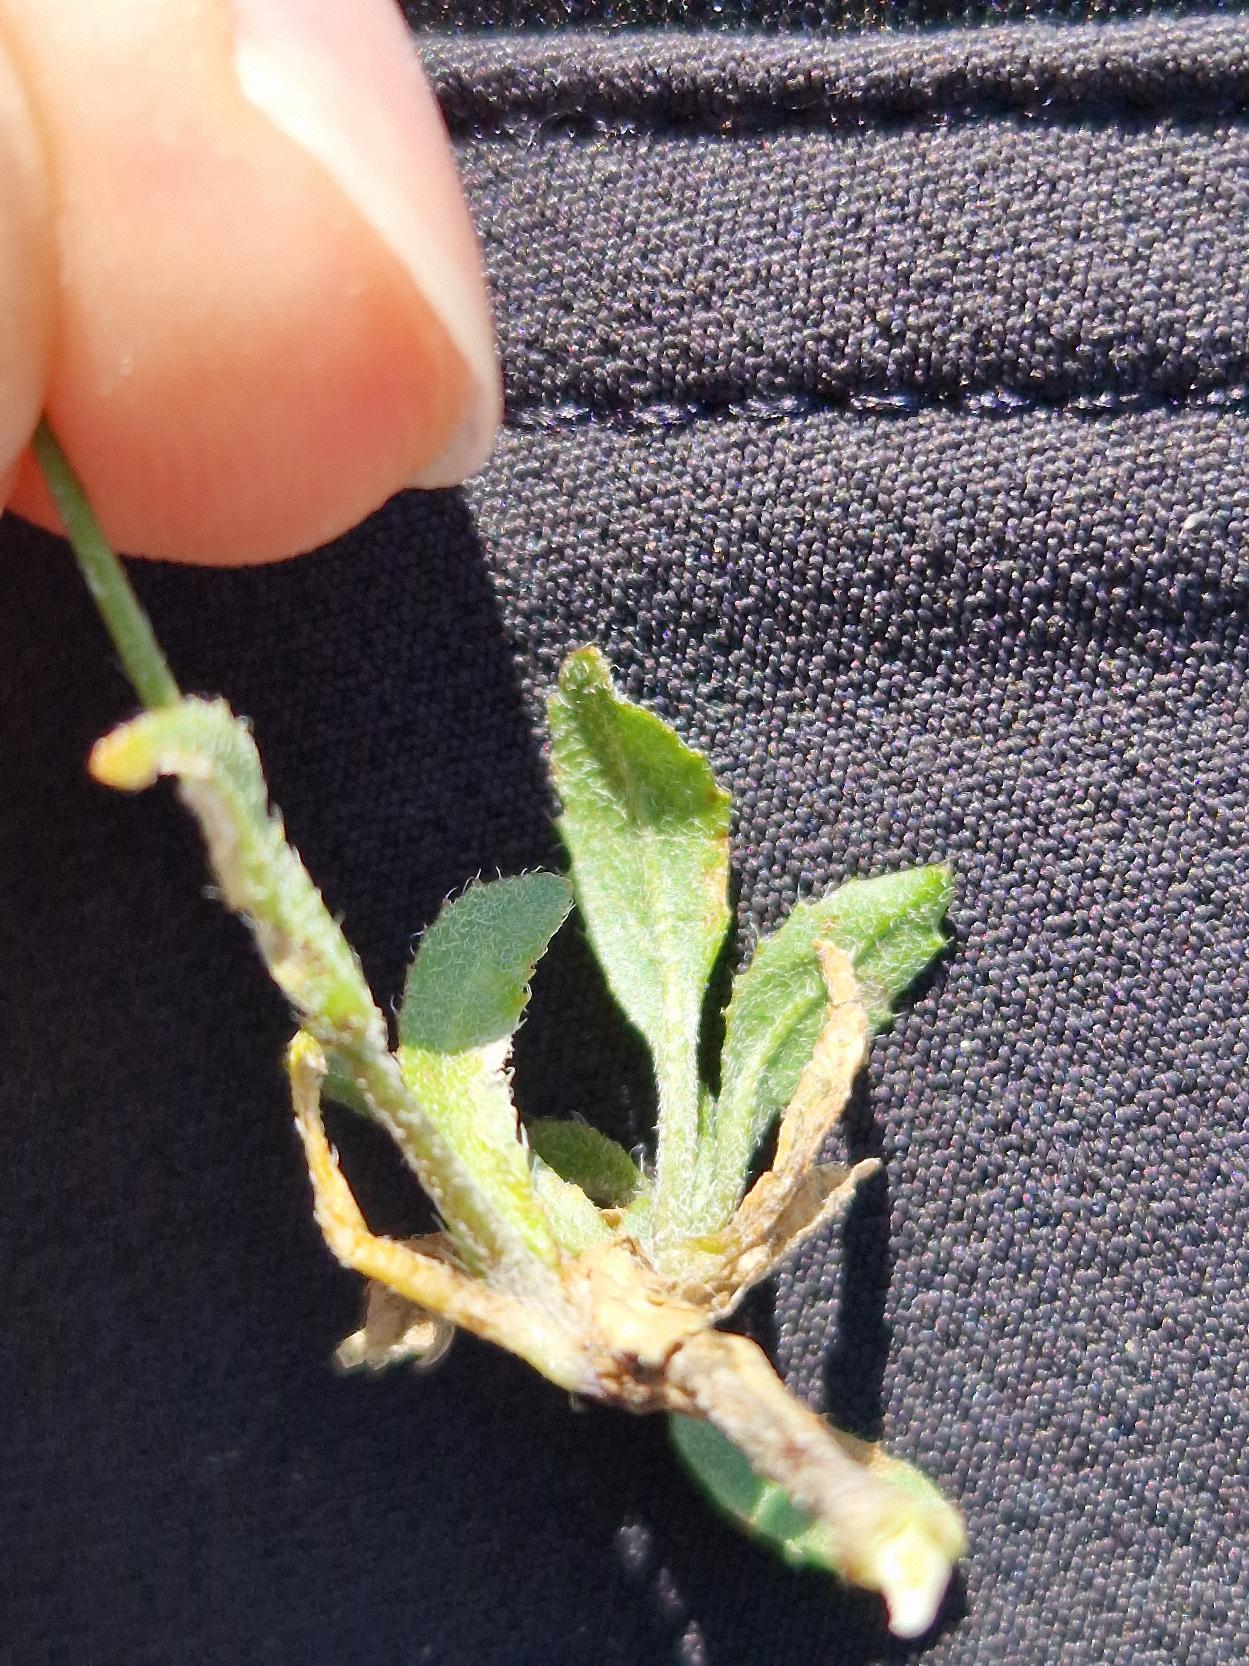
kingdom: Plantae
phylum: Tracheophyta
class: Magnoliopsida
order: Brassicales
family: Brassicaceae
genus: Capsella
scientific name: Capsella bursa-pastoris
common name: Hyrdetaske
